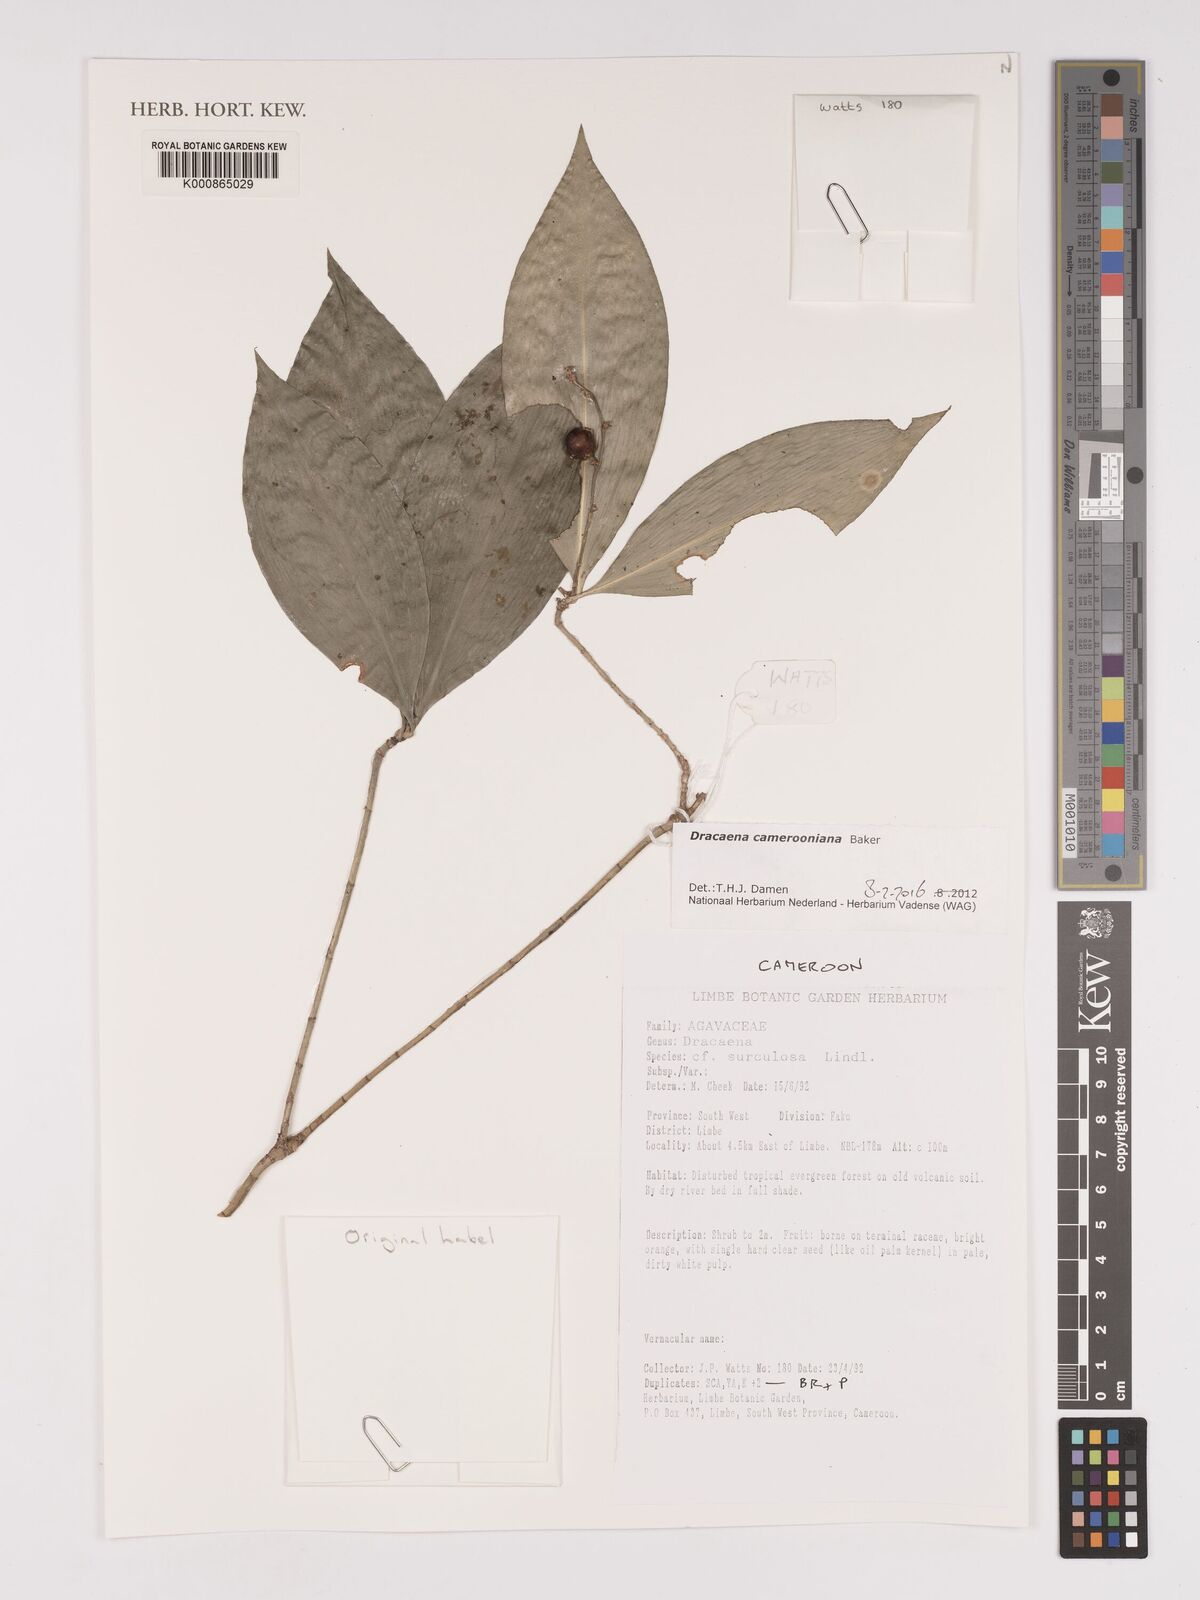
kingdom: Plantae
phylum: Tracheophyta
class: Liliopsida
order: Asparagales
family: Asparagaceae
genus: Dracaena
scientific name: Dracaena camerooniana
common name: Dragon tree
